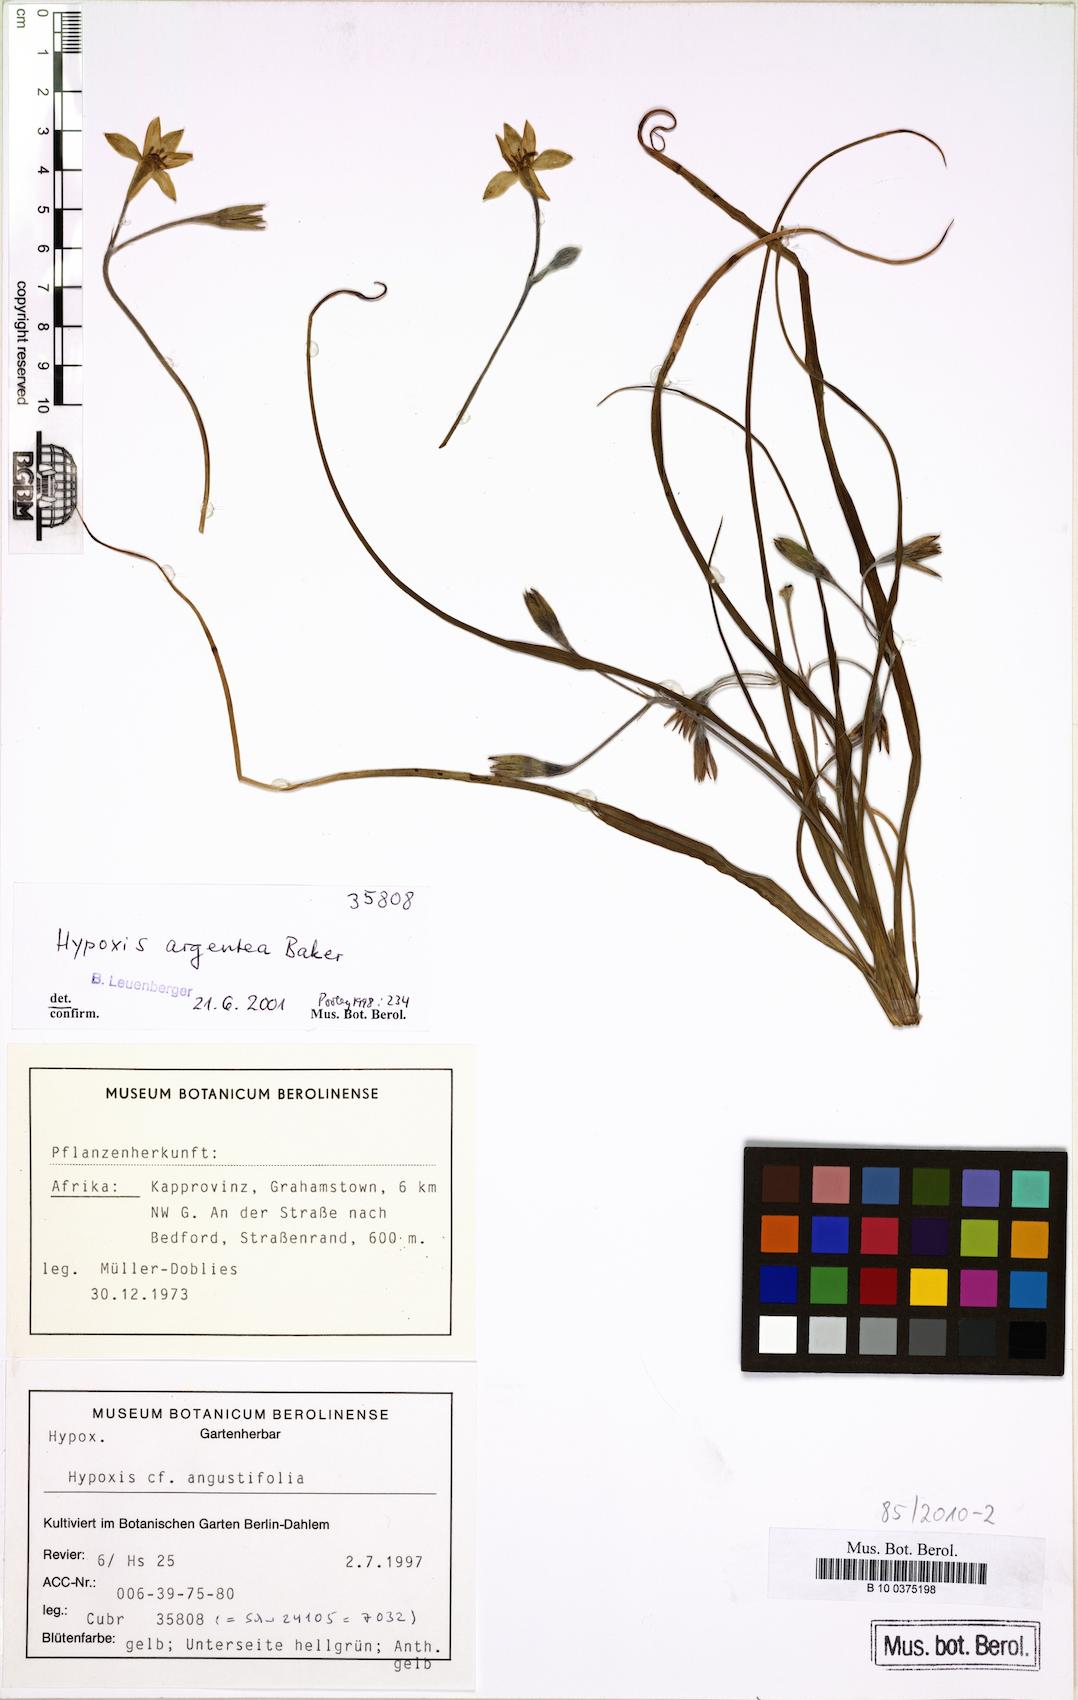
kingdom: Plantae
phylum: Tracheophyta
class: Liliopsida
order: Asparagales
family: Hypoxidaceae
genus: Hypoxis
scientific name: Hypoxis argentea
